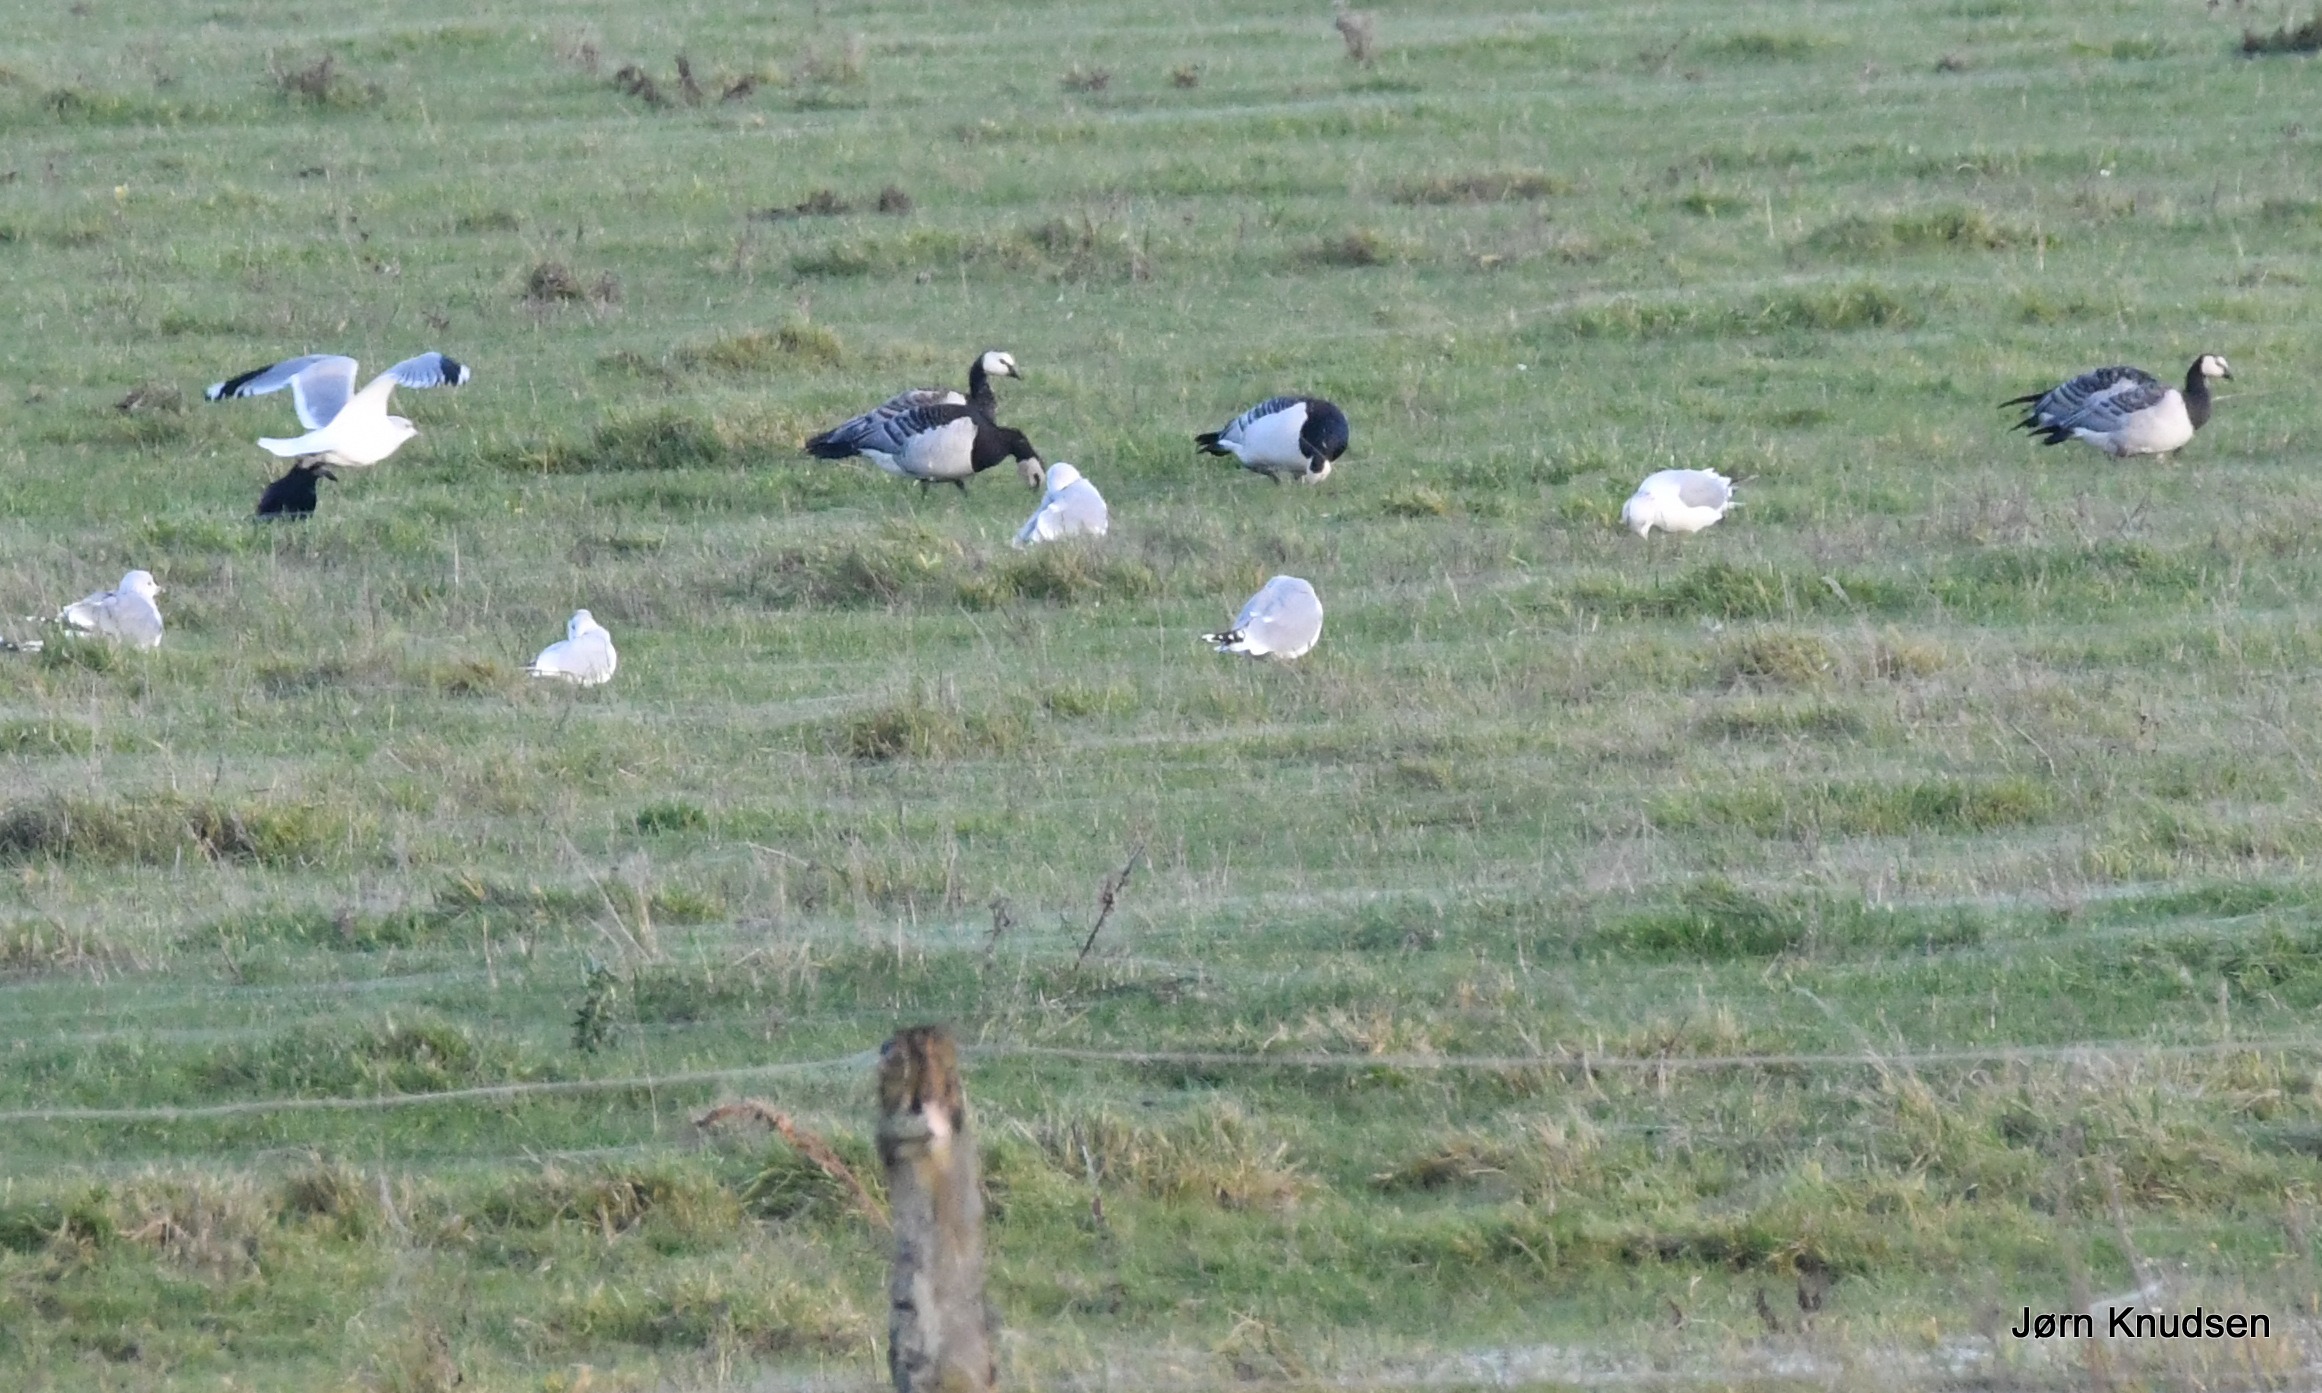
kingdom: Animalia
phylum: Chordata
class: Aves
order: Anseriformes
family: Anatidae
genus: Branta
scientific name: Branta leucopsis
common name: Bramgås
